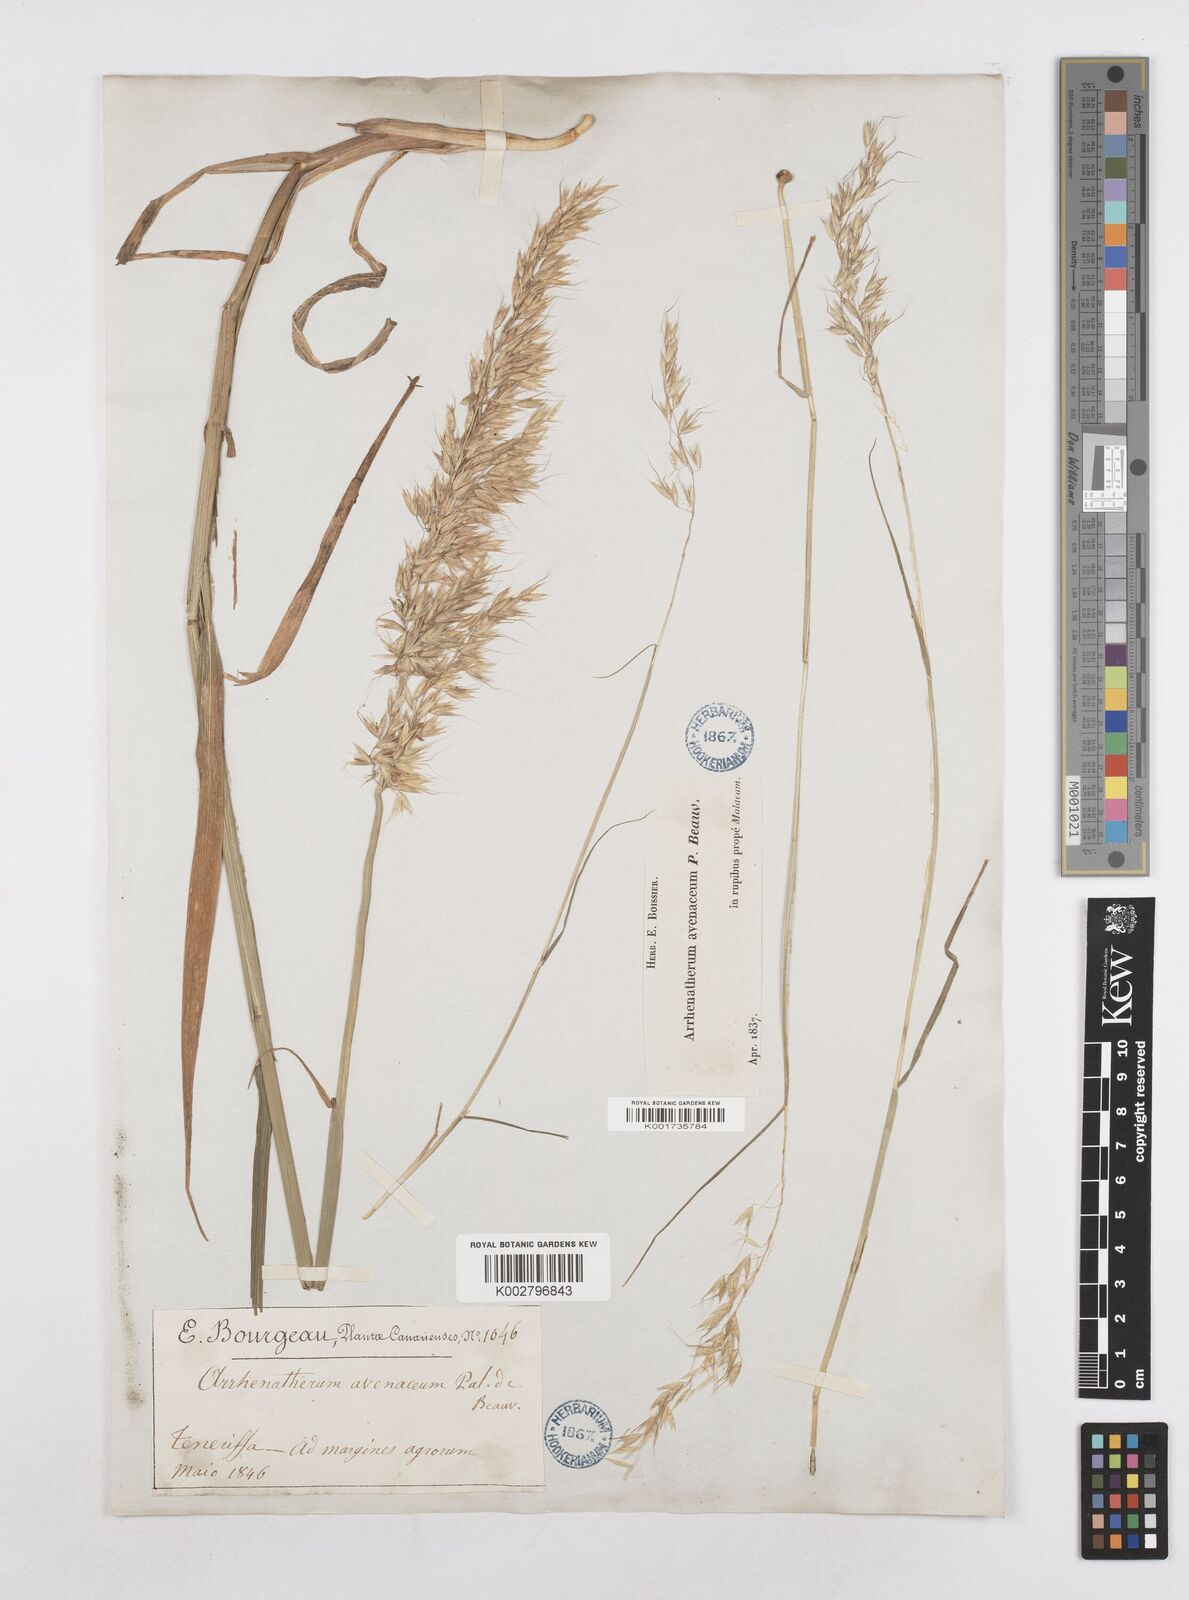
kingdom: Plantae
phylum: Tracheophyta
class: Liliopsida
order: Poales
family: Poaceae
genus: Arrhenatherum
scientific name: Arrhenatherum elatius
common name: Tall oatgrass
